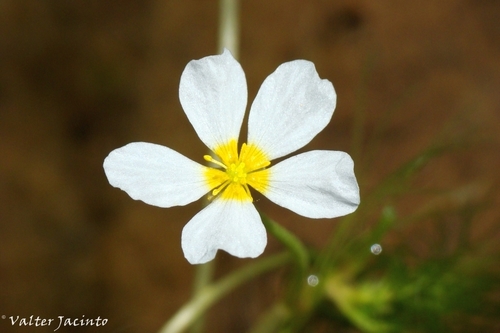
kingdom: Plantae
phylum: Tracheophyta
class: Magnoliopsida
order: Ranunculales
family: Ranunculaceae
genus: Ranunculus
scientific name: Ranunculus peltatus
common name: Pond water-crowfoot
